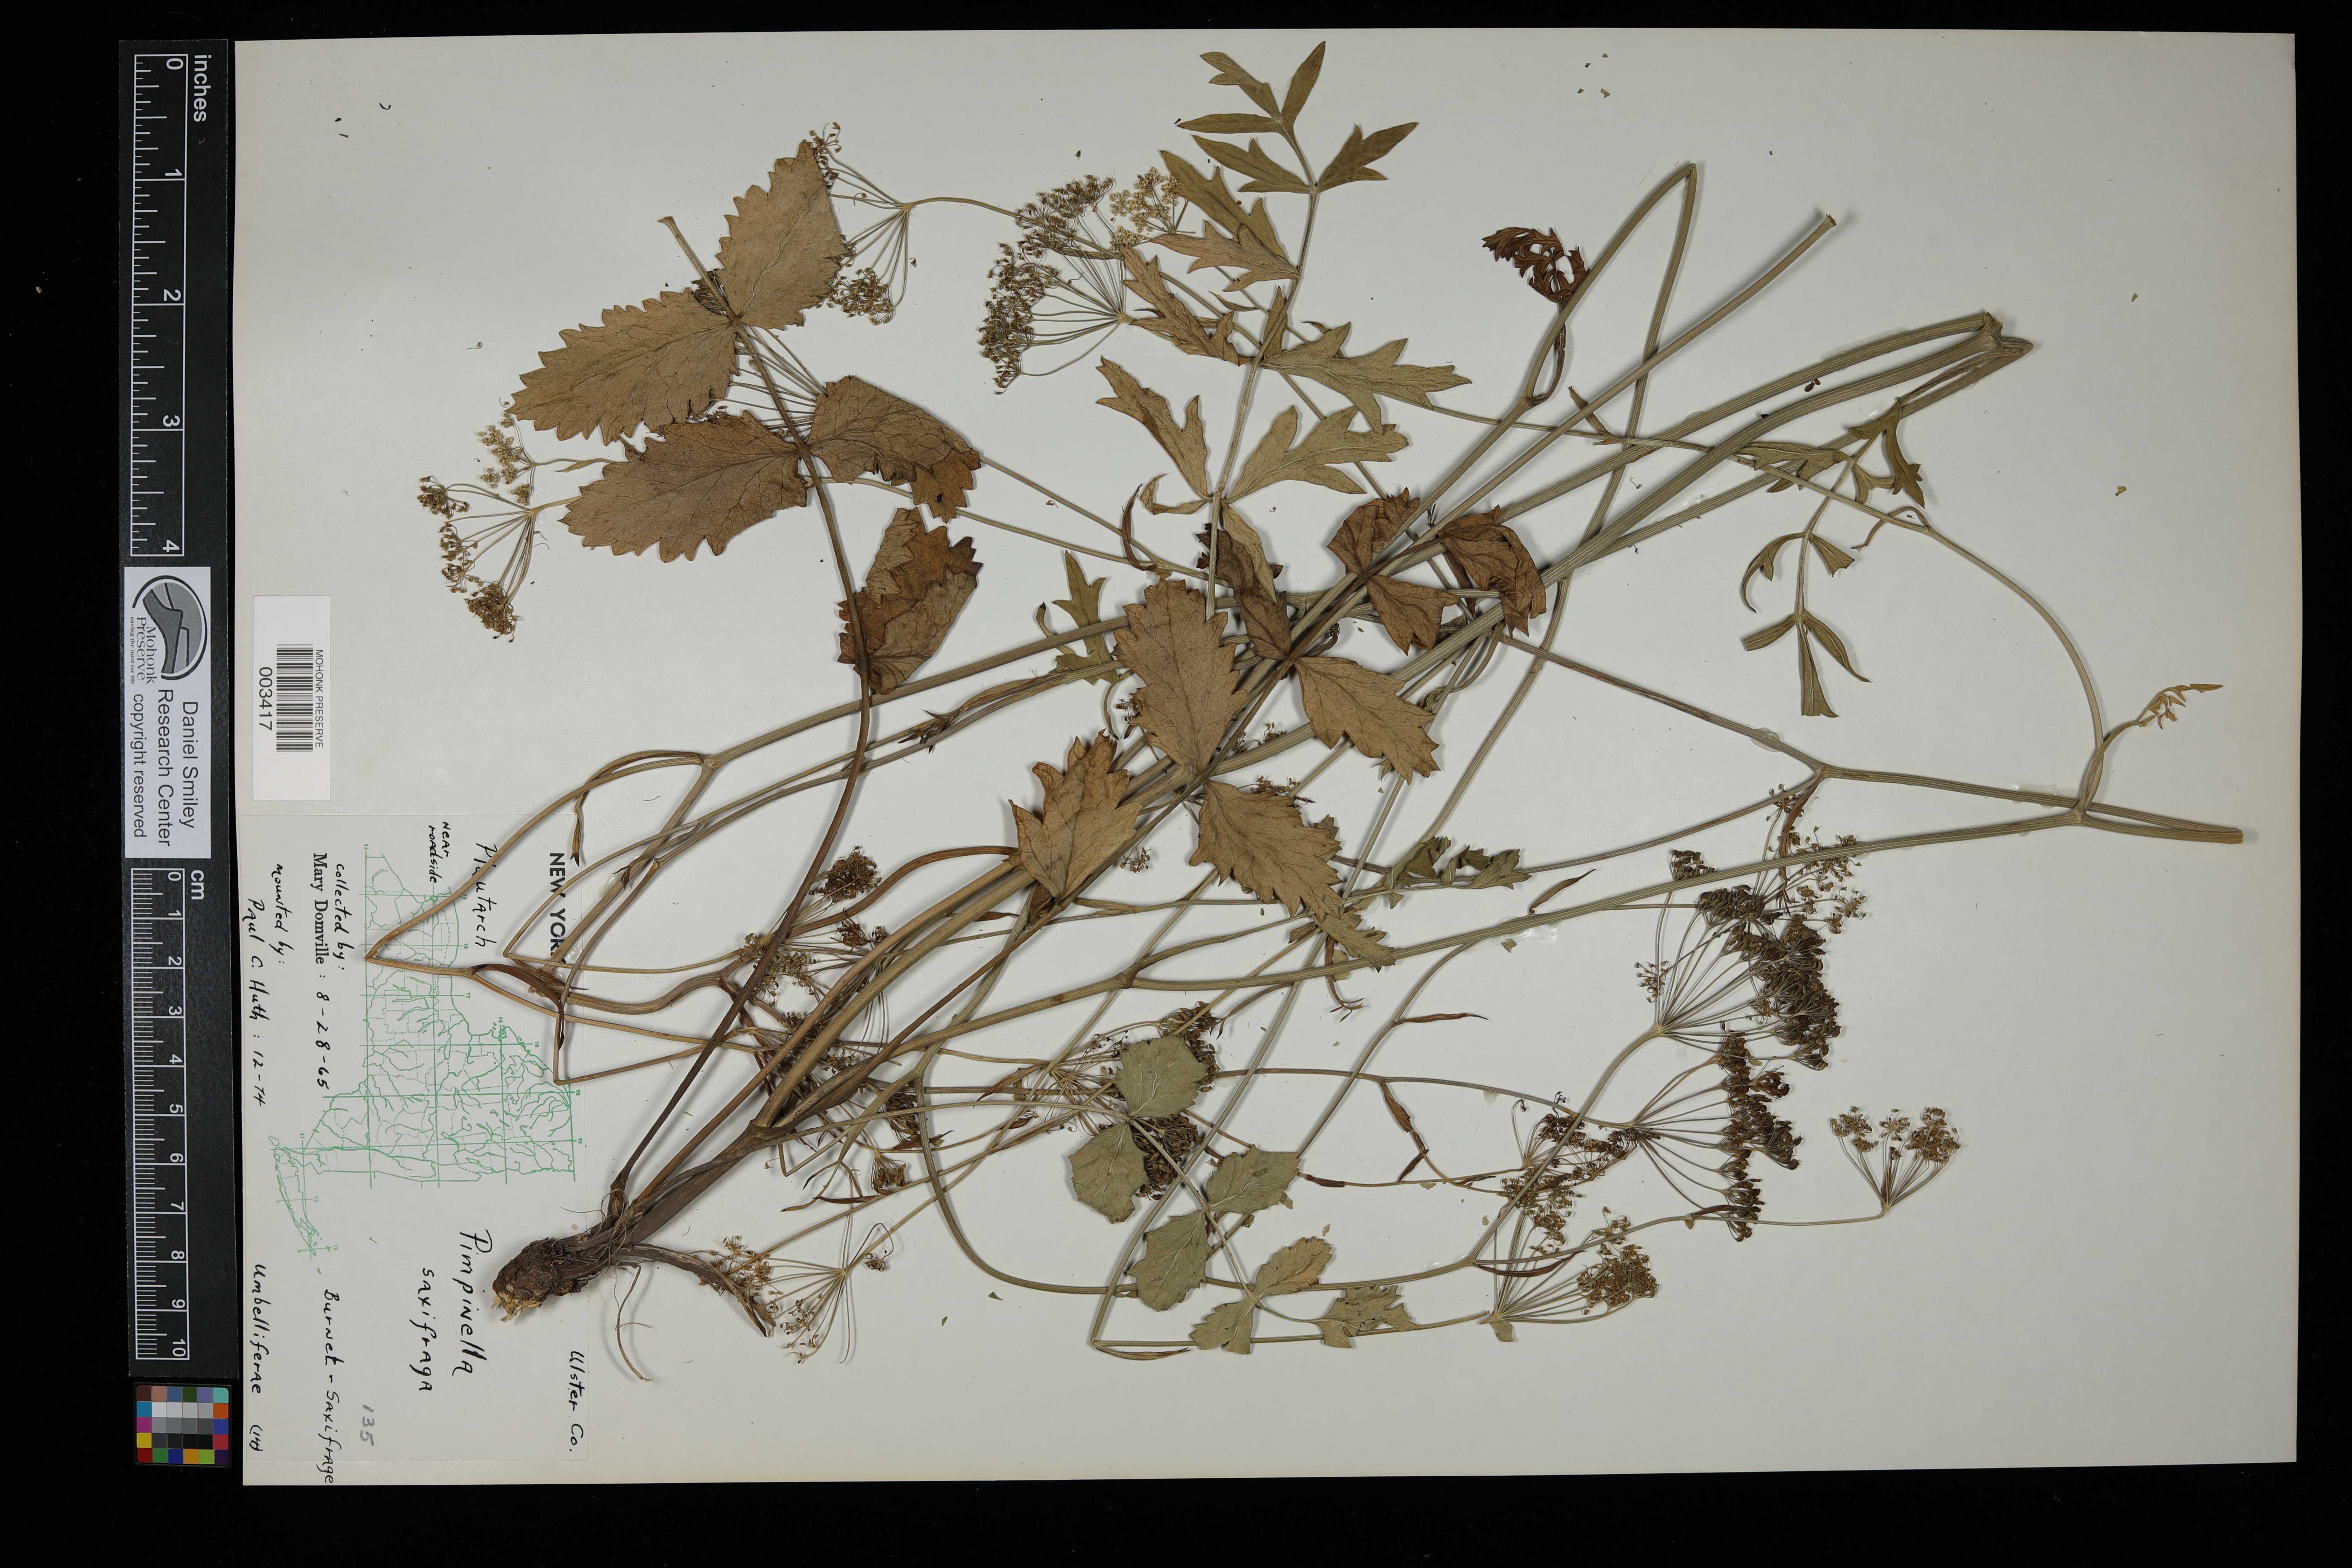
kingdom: Plantae
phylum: Tracheophyta
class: Magnoliopsida
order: Apiales
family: Apiaceae
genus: Pimpinella
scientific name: Pimpinella saxifraga
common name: Burnet-saxifrage
